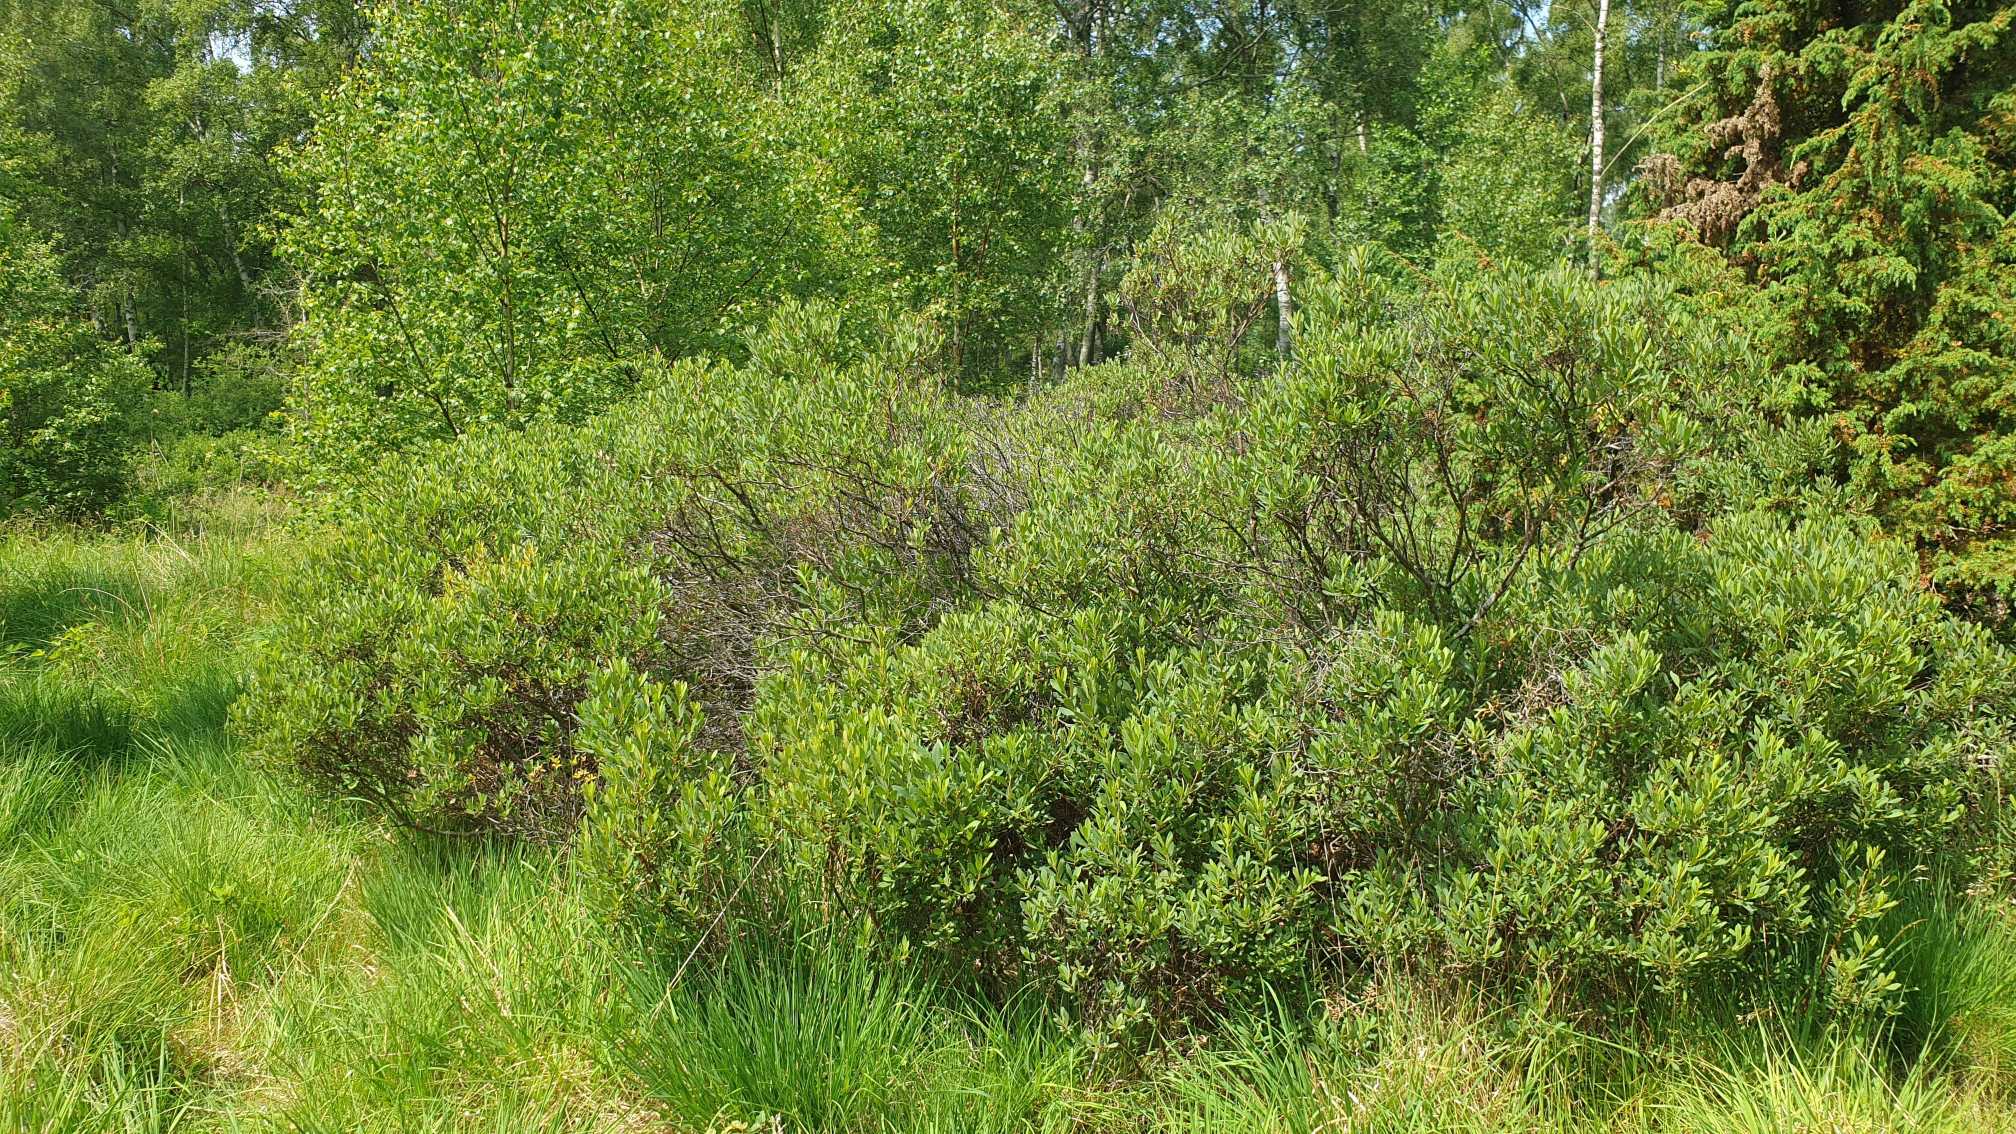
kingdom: Plantae
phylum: Tracheophyta
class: Magnoliopsida
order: Fagales
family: Myricaceae
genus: Myrica
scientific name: Myrica gale
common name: Pors
